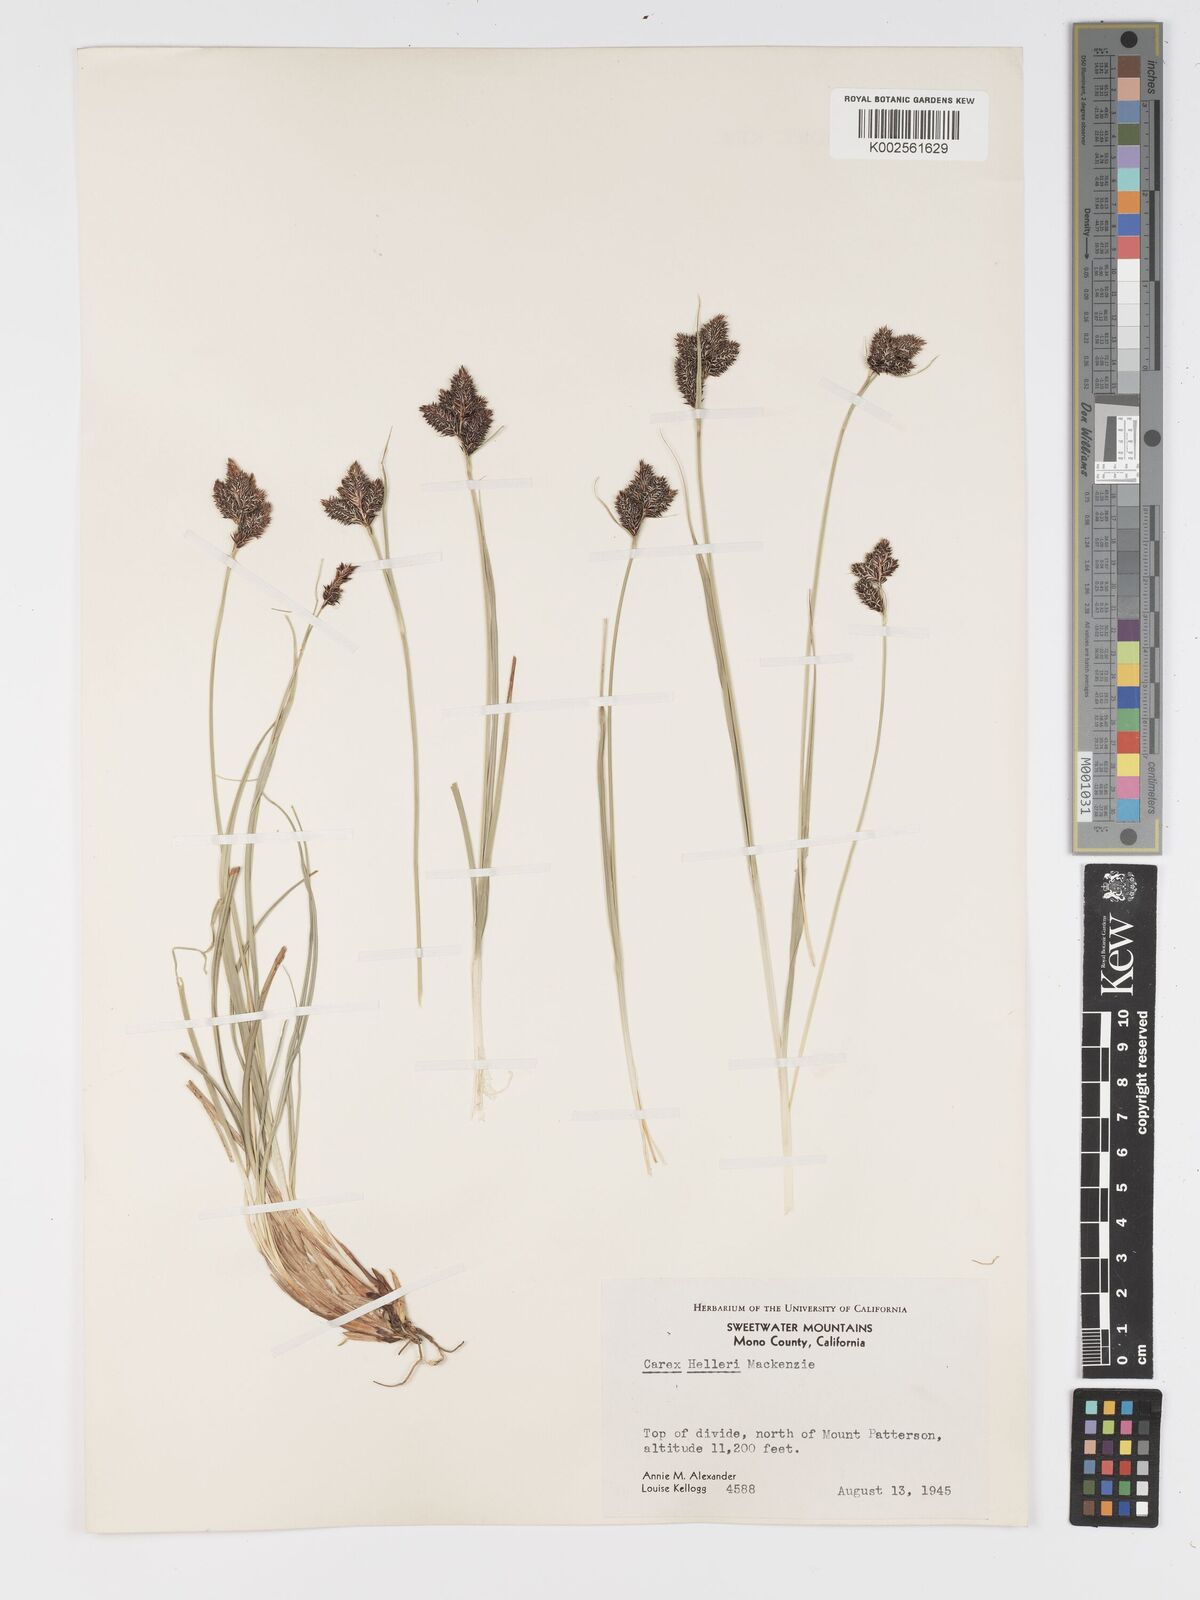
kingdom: Plantae
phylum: Tracheophyta
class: Liliopsida
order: Poales
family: Cyperaceae
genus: Carex
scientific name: Carex helleri
